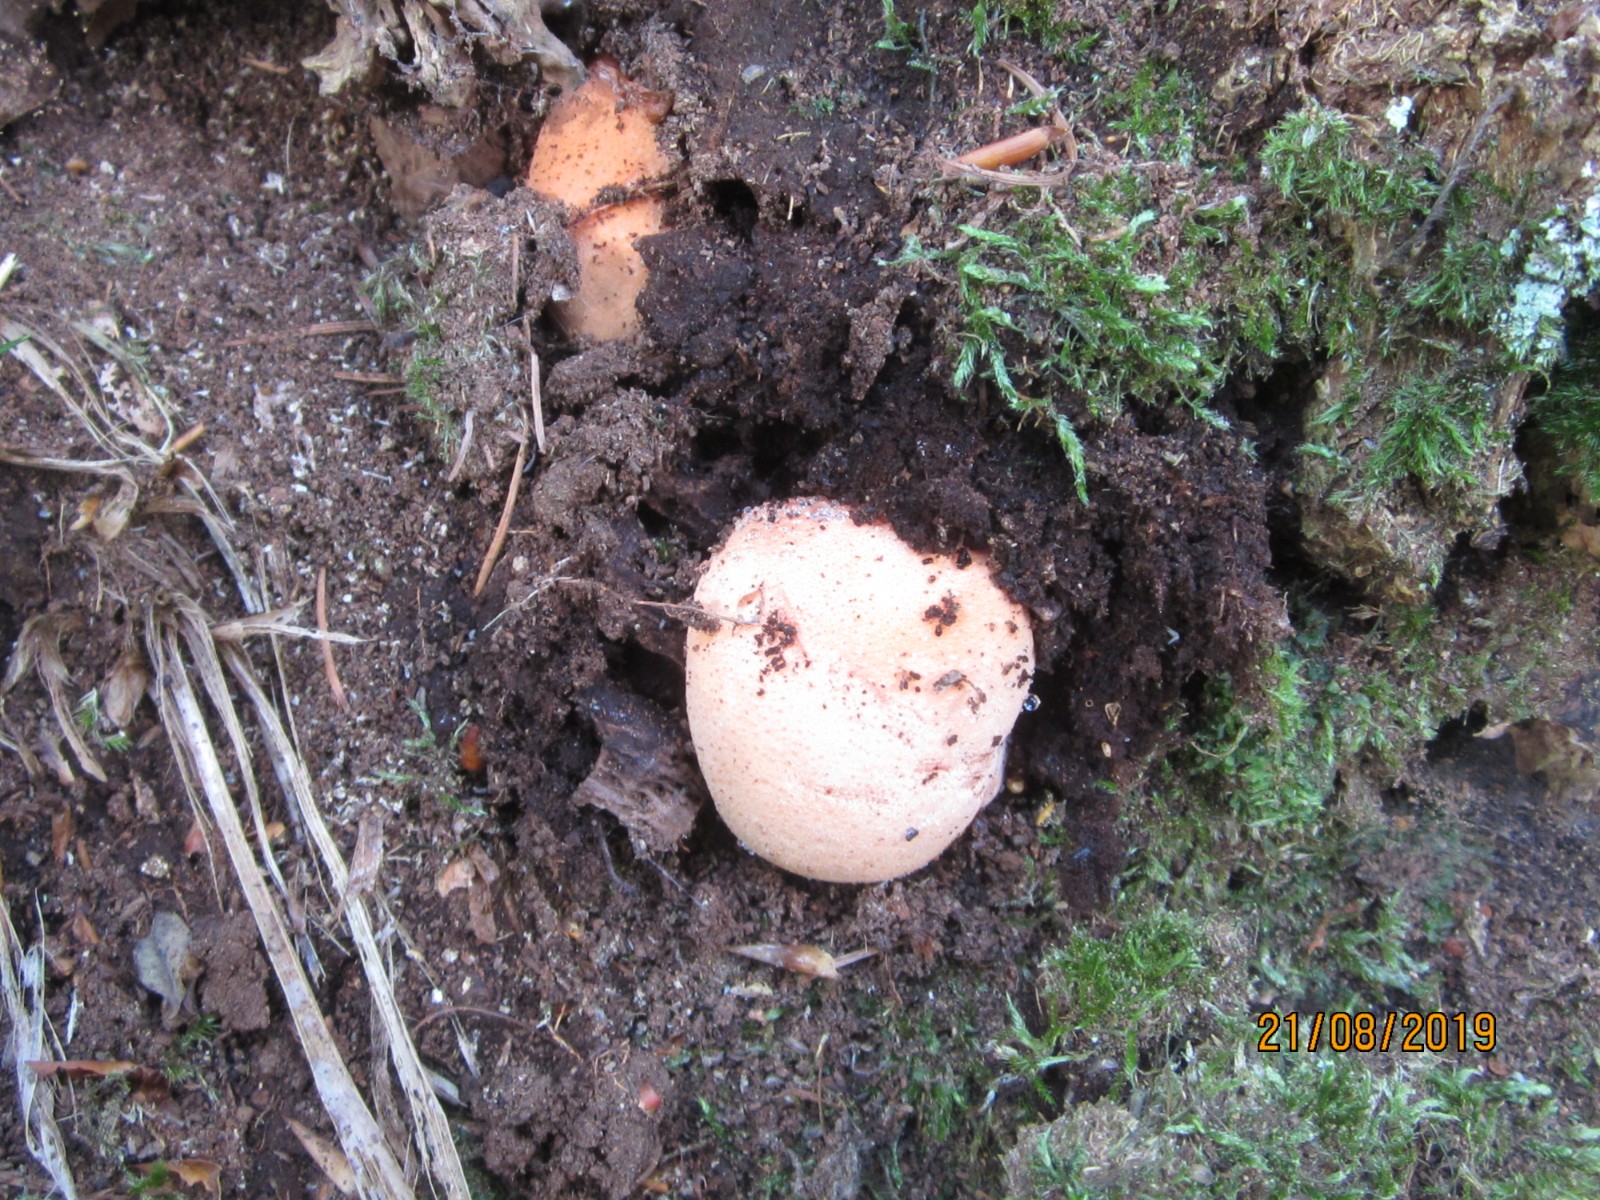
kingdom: Fungi
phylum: Basidiomycota
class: Agaricomycetes
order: Agaricales
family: Fistulinaceae
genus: Fistulina
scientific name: Fistulina hepatica
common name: oksetunge
